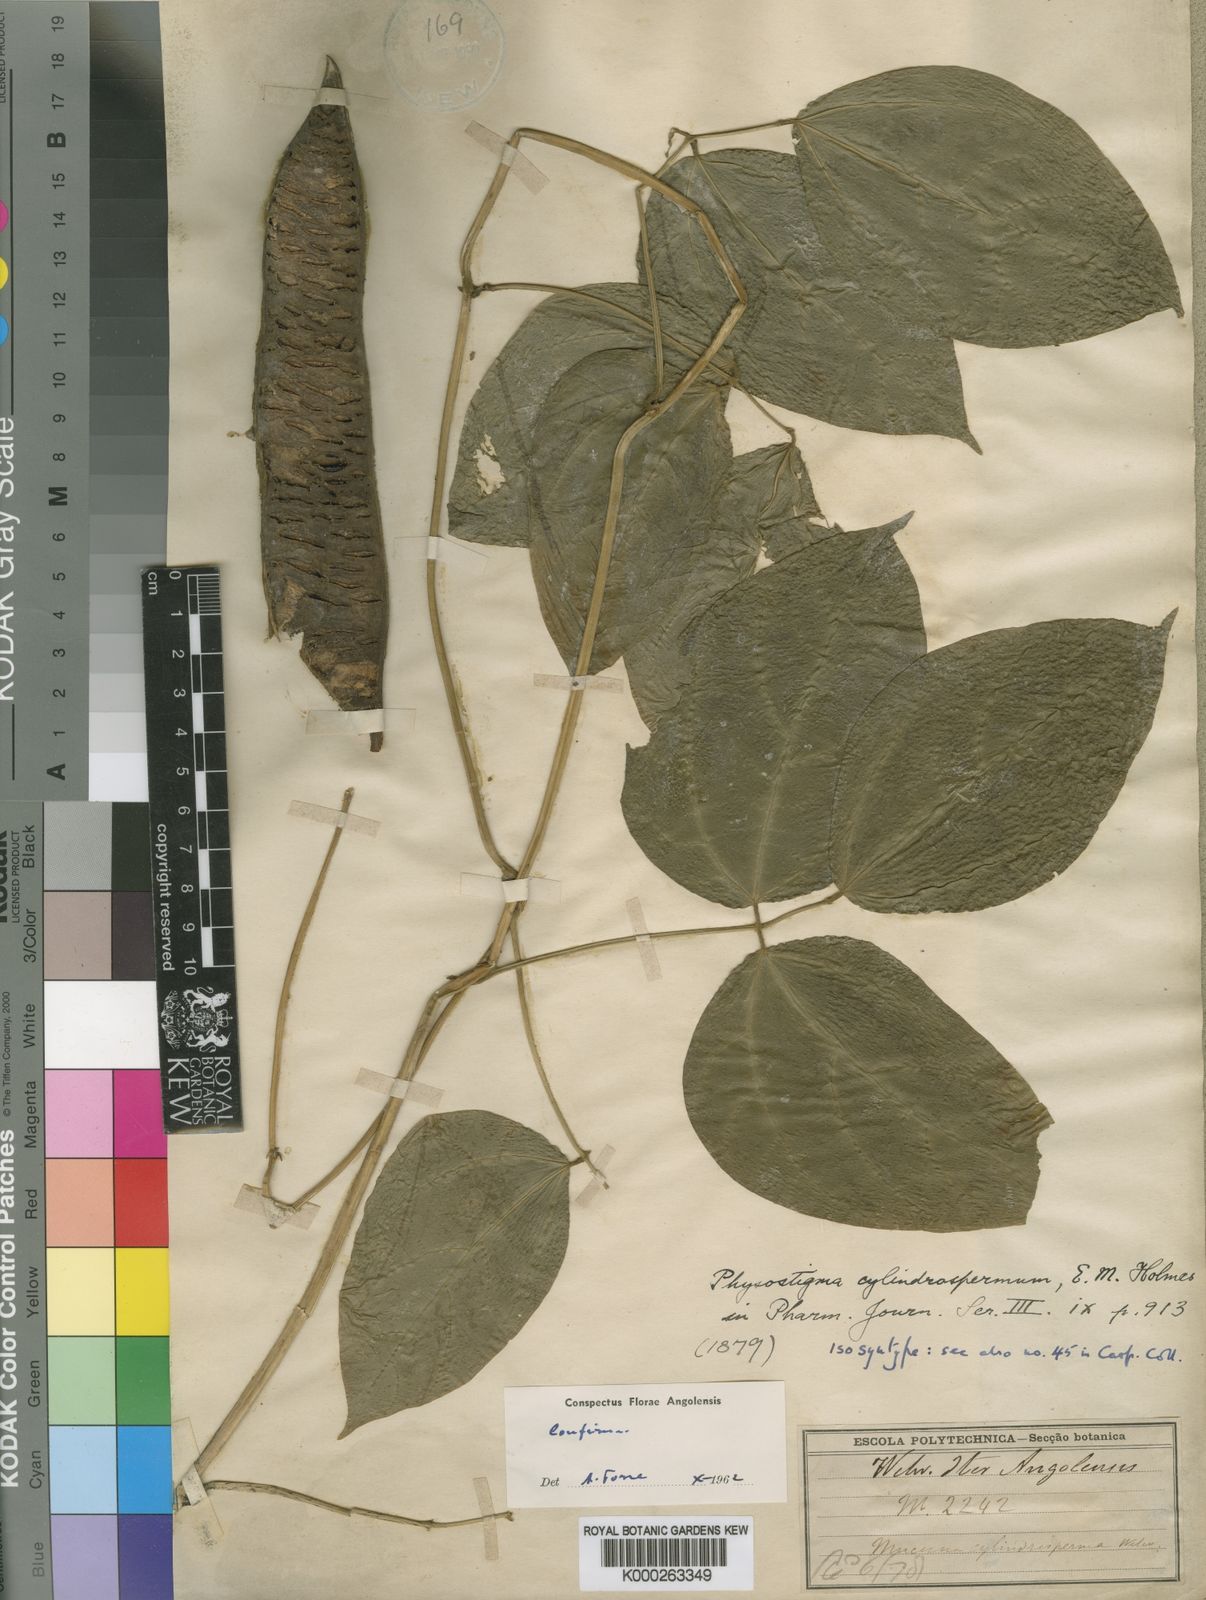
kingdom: Plantae
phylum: Tracheophyta
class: Magnoliopsida
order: Fabales
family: Fabaceae
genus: Physostigma
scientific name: Physostigma cylindrospermum
